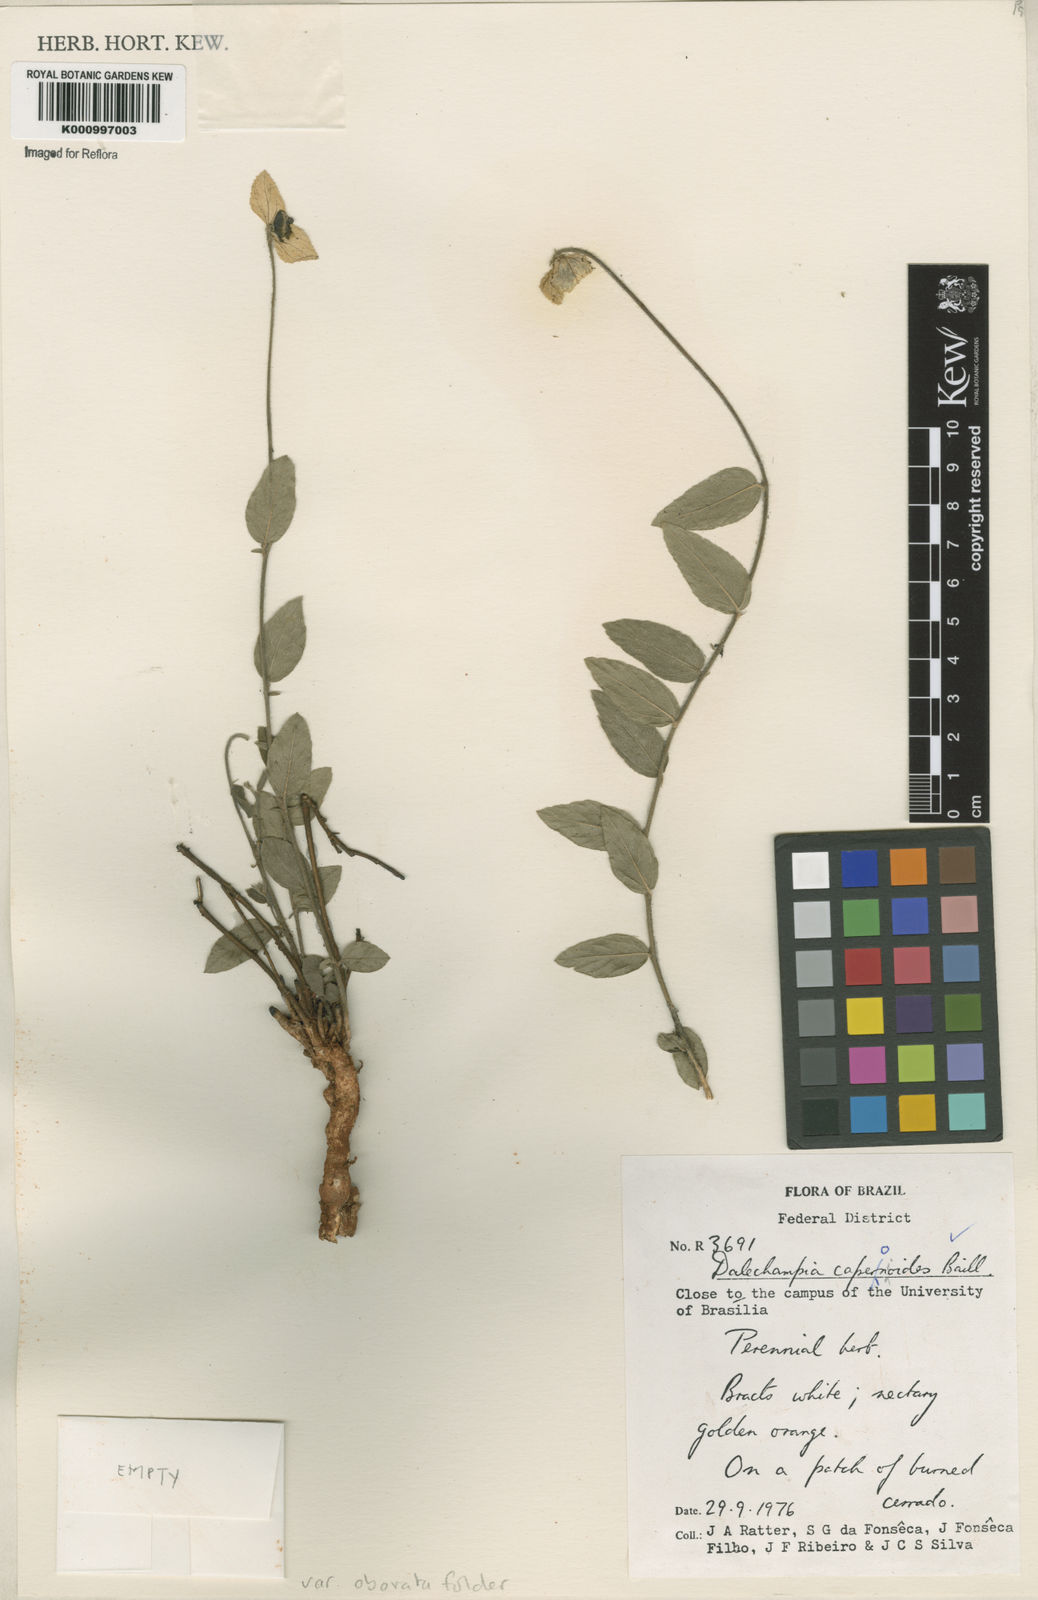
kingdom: Plantae
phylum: Tracheophyta
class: Magnoliopsida
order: Malpighiales
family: Euphorbiaceae
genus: Dalechampia
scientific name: Dalechampia caperonioides
